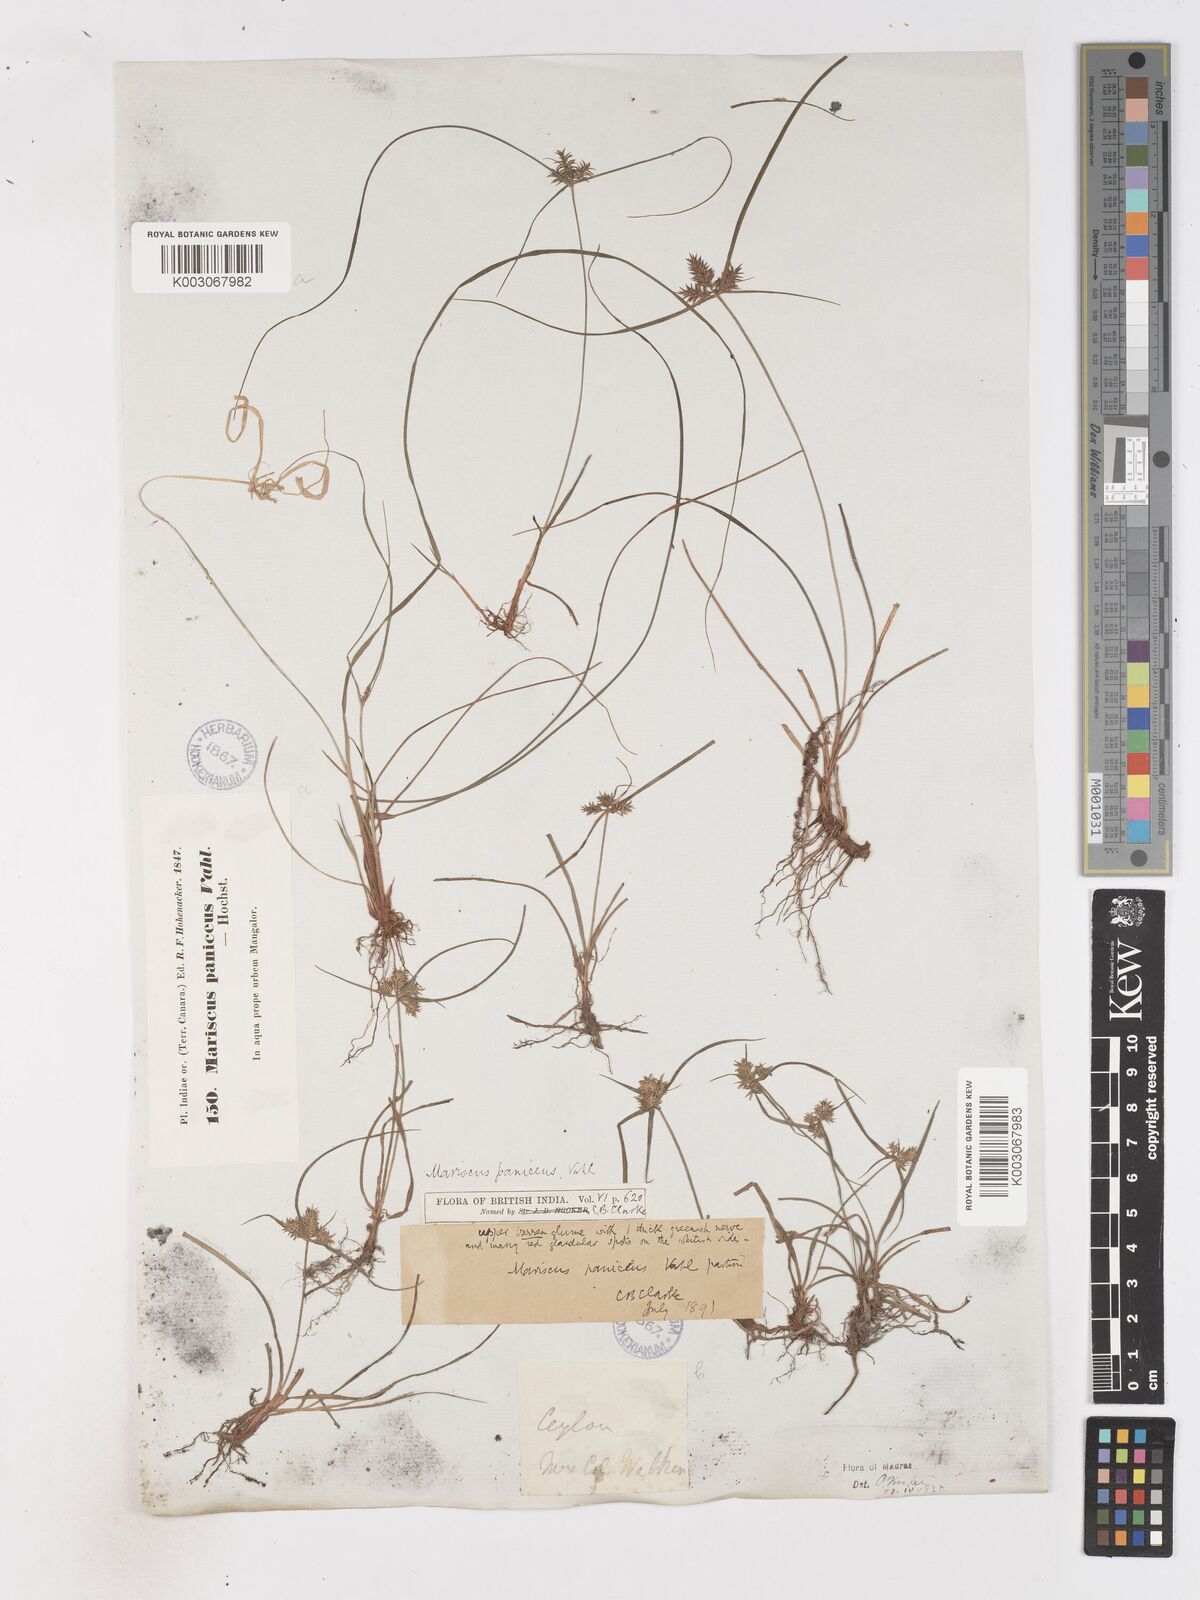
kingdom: Plantae
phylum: Tracheophyta
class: Liliopsida
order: Poales
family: Cyperaceae
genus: Cyperus
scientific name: Cyperus paniceus
